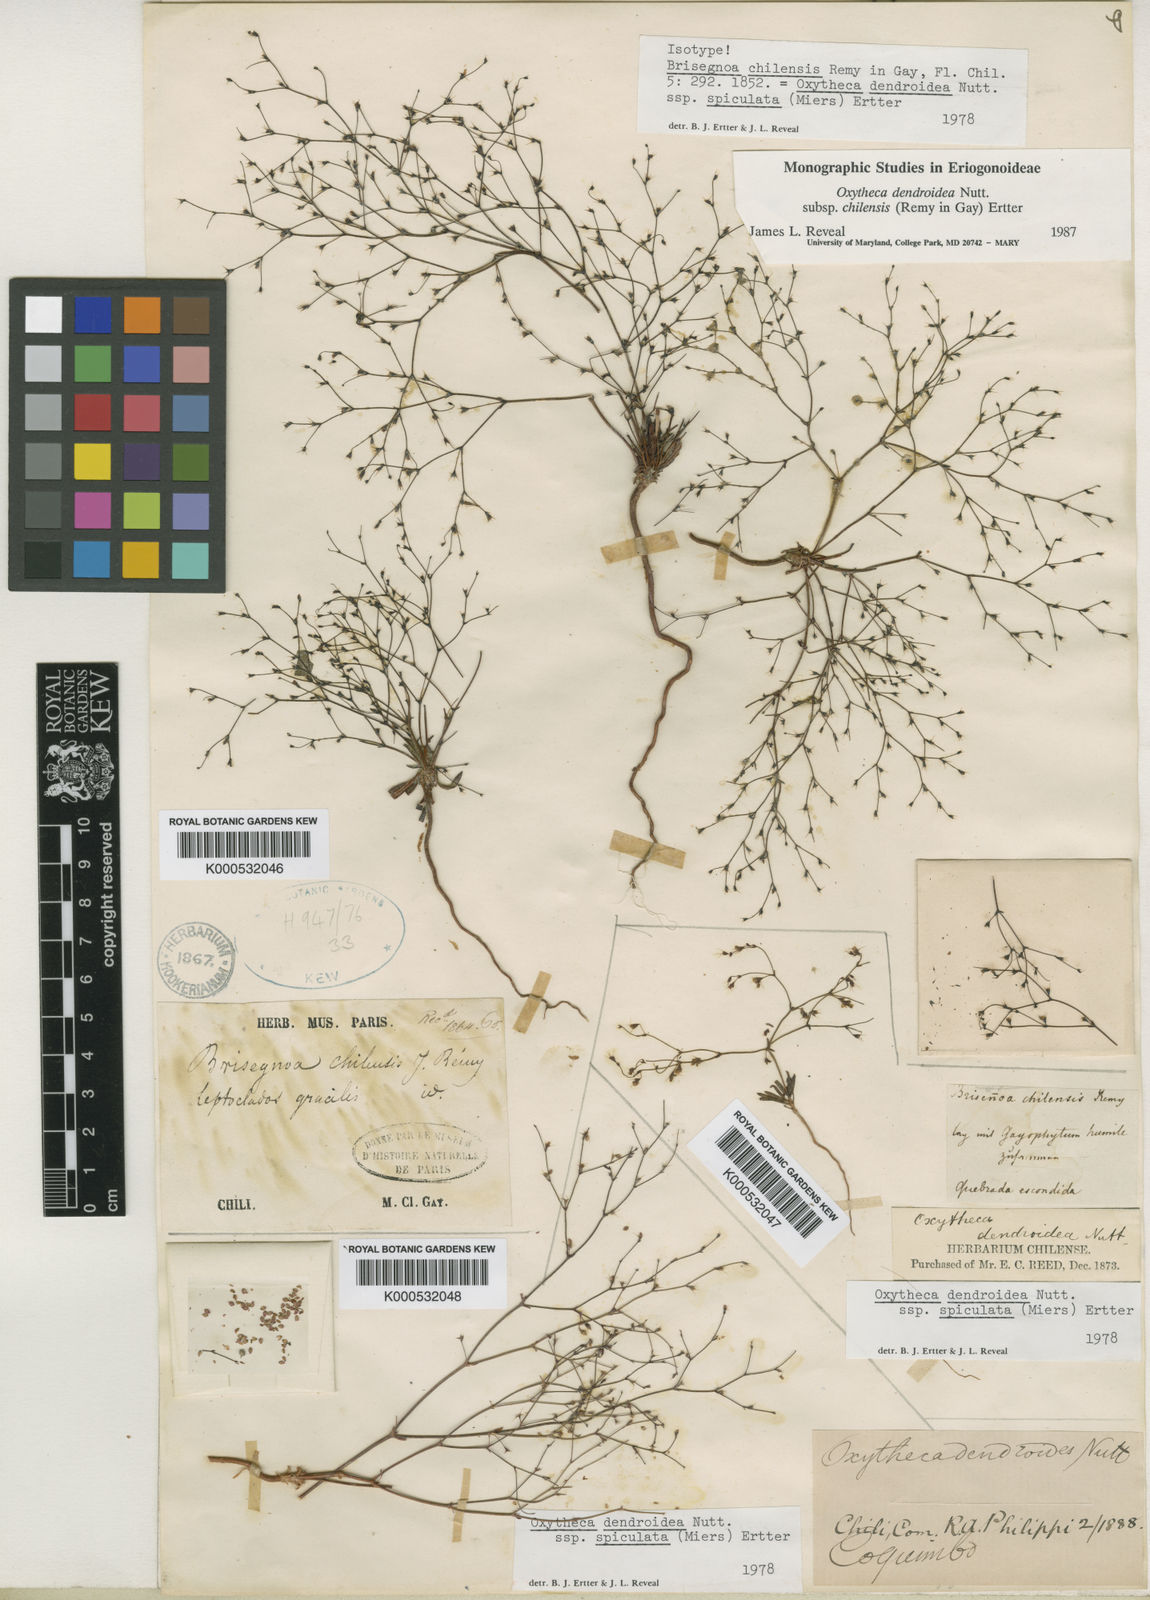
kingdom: Plantae
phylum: Tracheophyta
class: Magnoliopsida
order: Caryophyllales
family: Polygonaceae
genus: Oxytheca
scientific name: Oxytheca dendroidea
